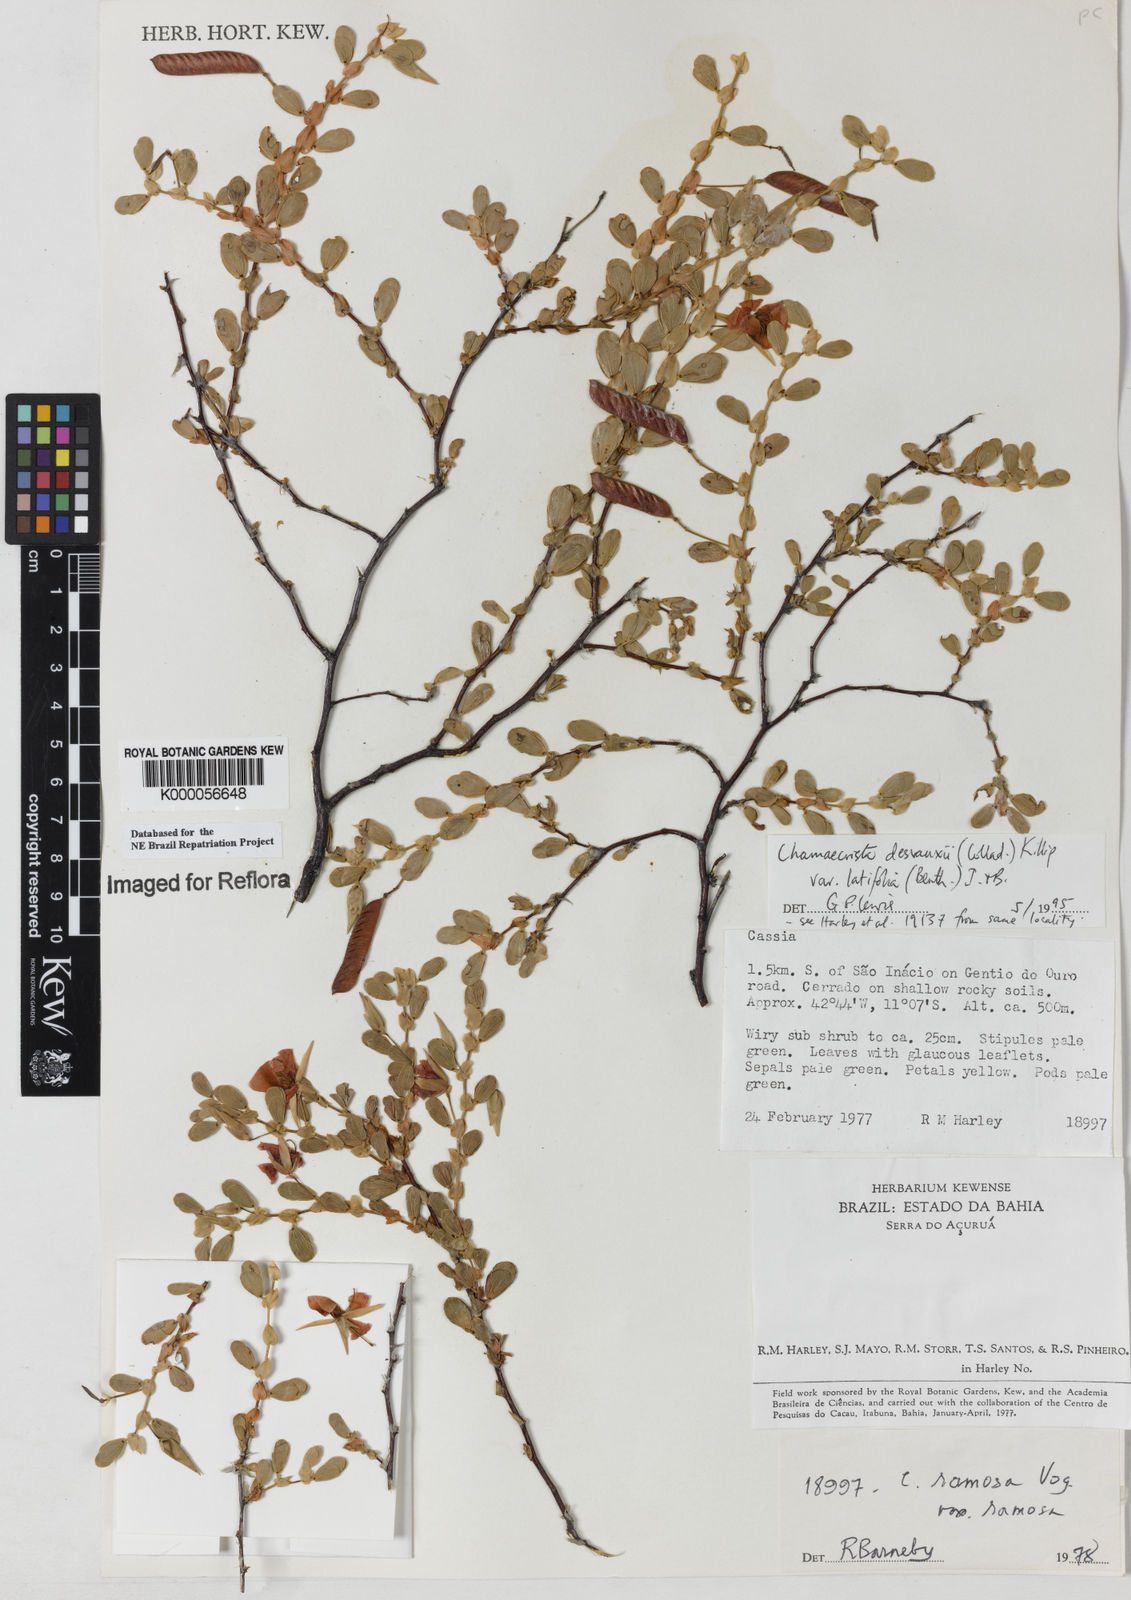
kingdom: Plantae
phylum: Tracheophyta
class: Magnoliopsida
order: Fabales
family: Fabaceae
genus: Chamaecrista
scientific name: Chamaecrista desvauxii
